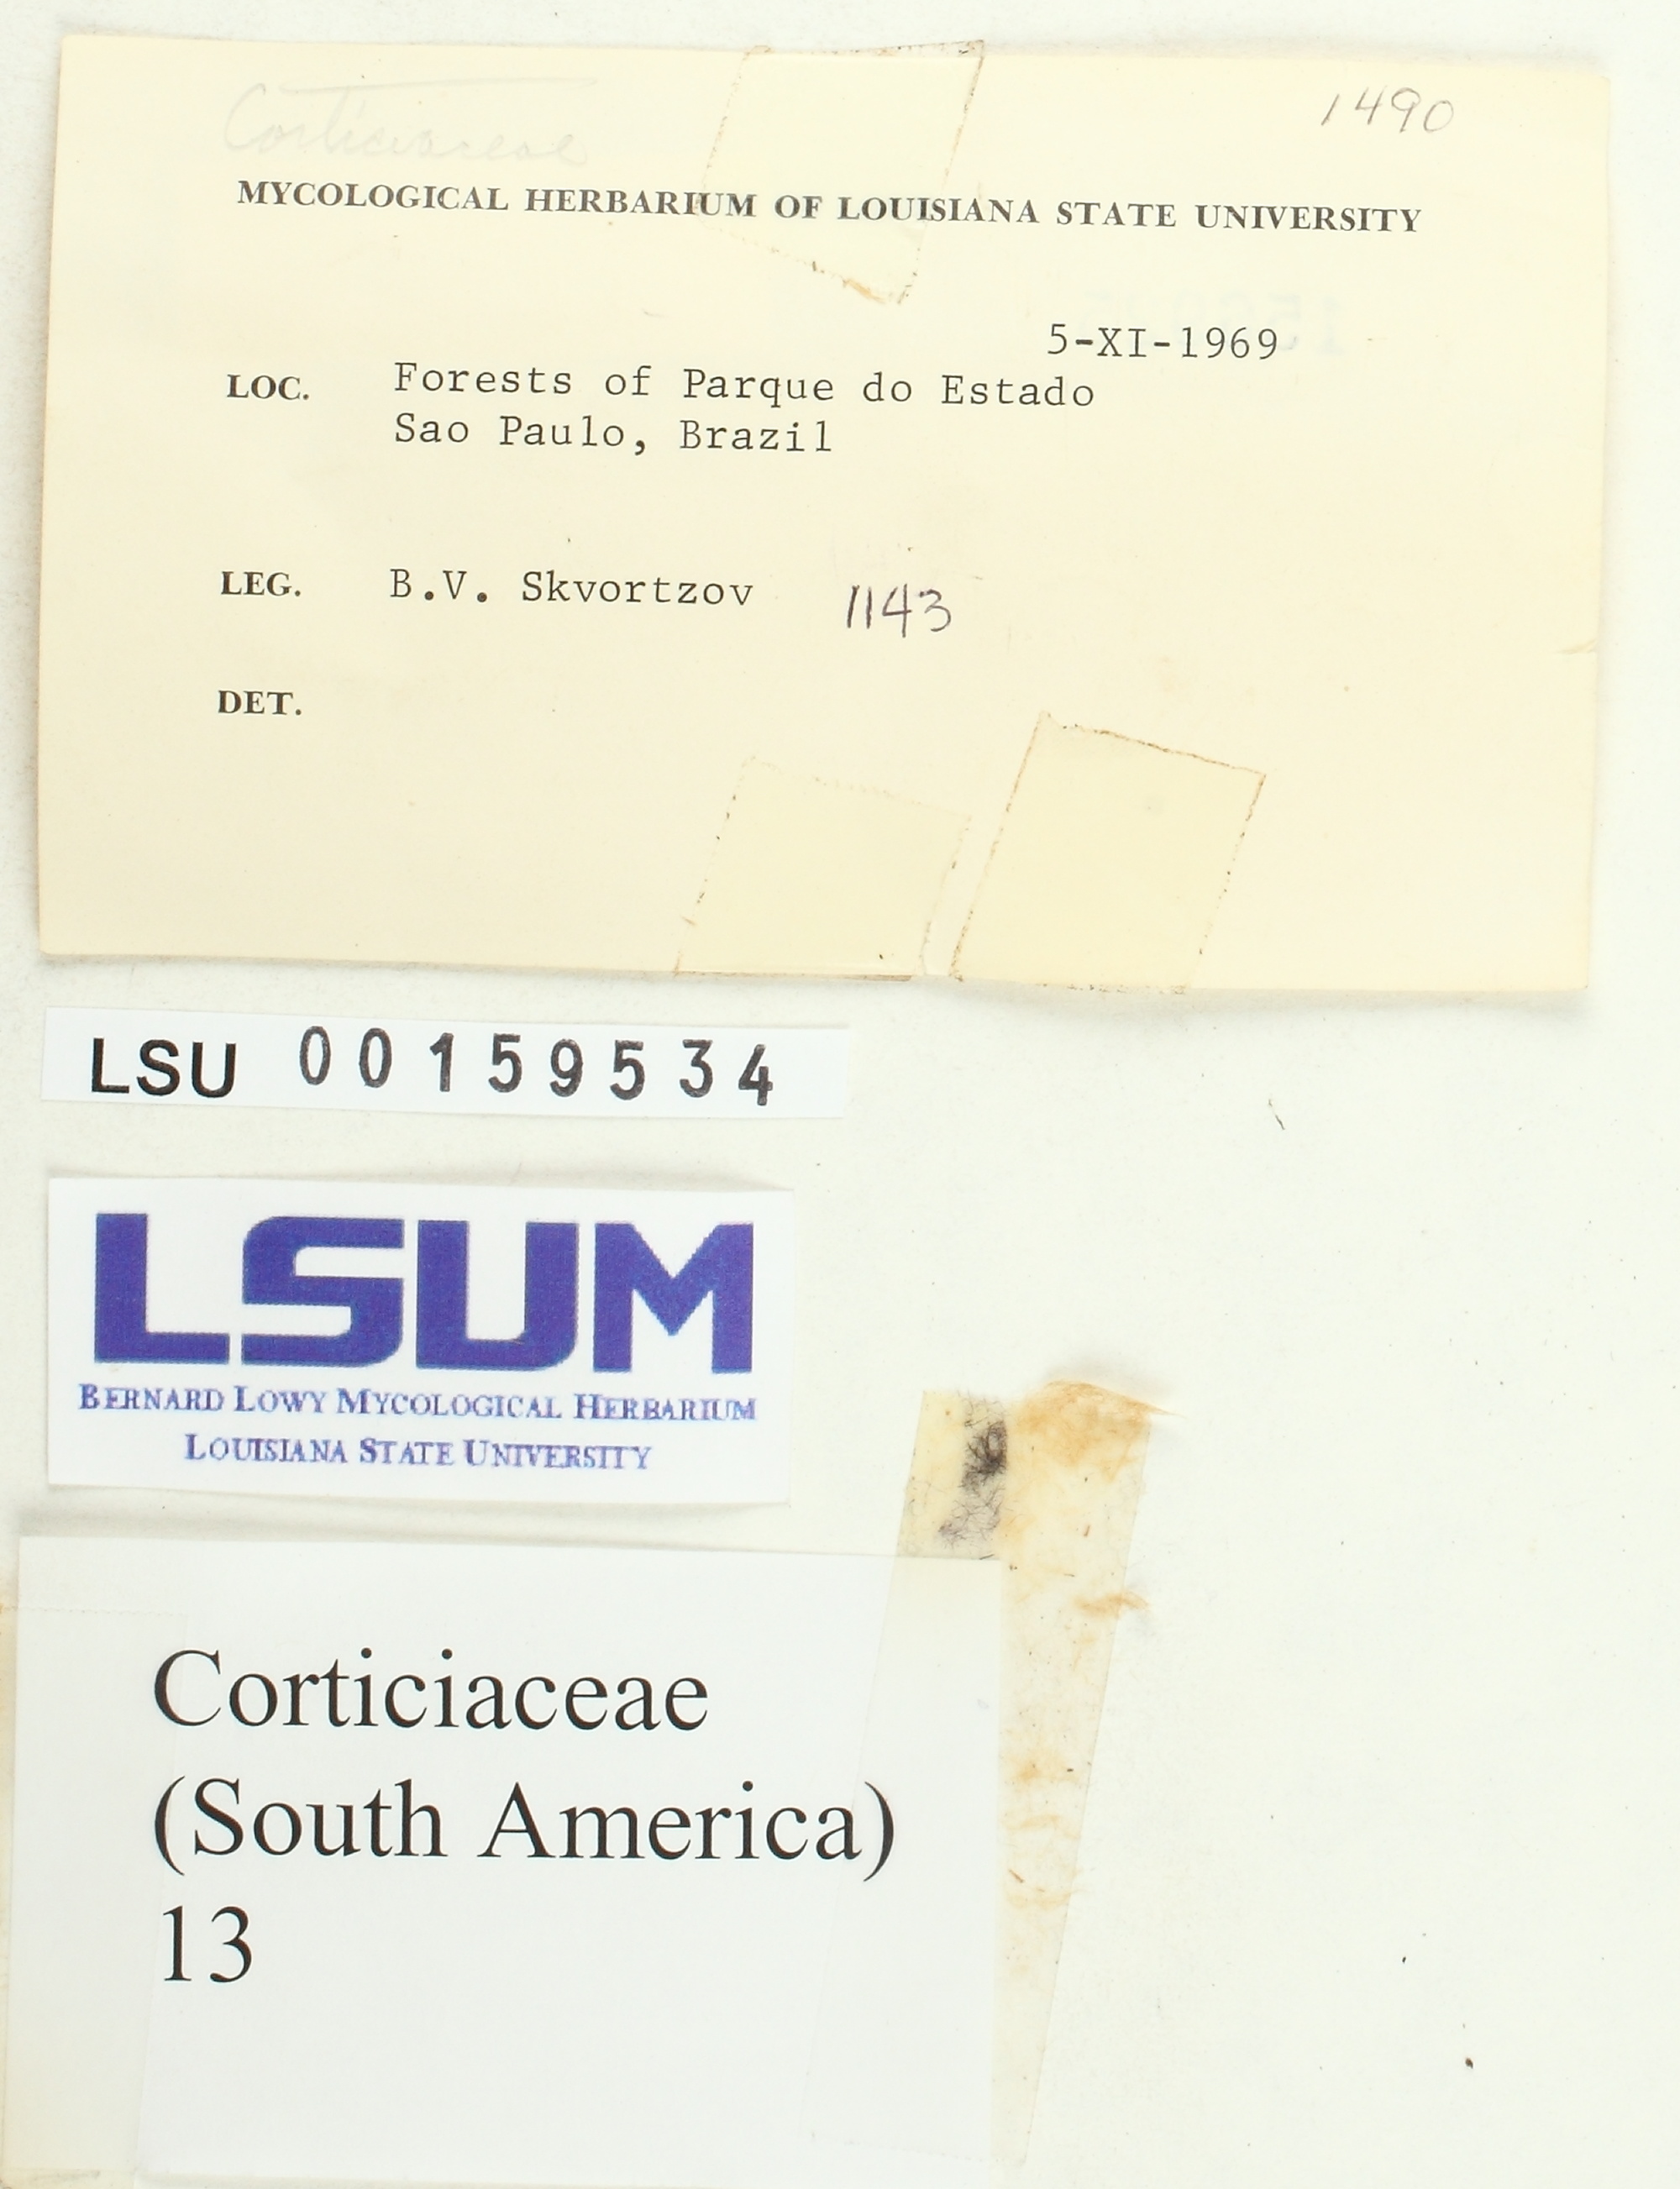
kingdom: Fungi
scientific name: Fungi
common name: Fungi
